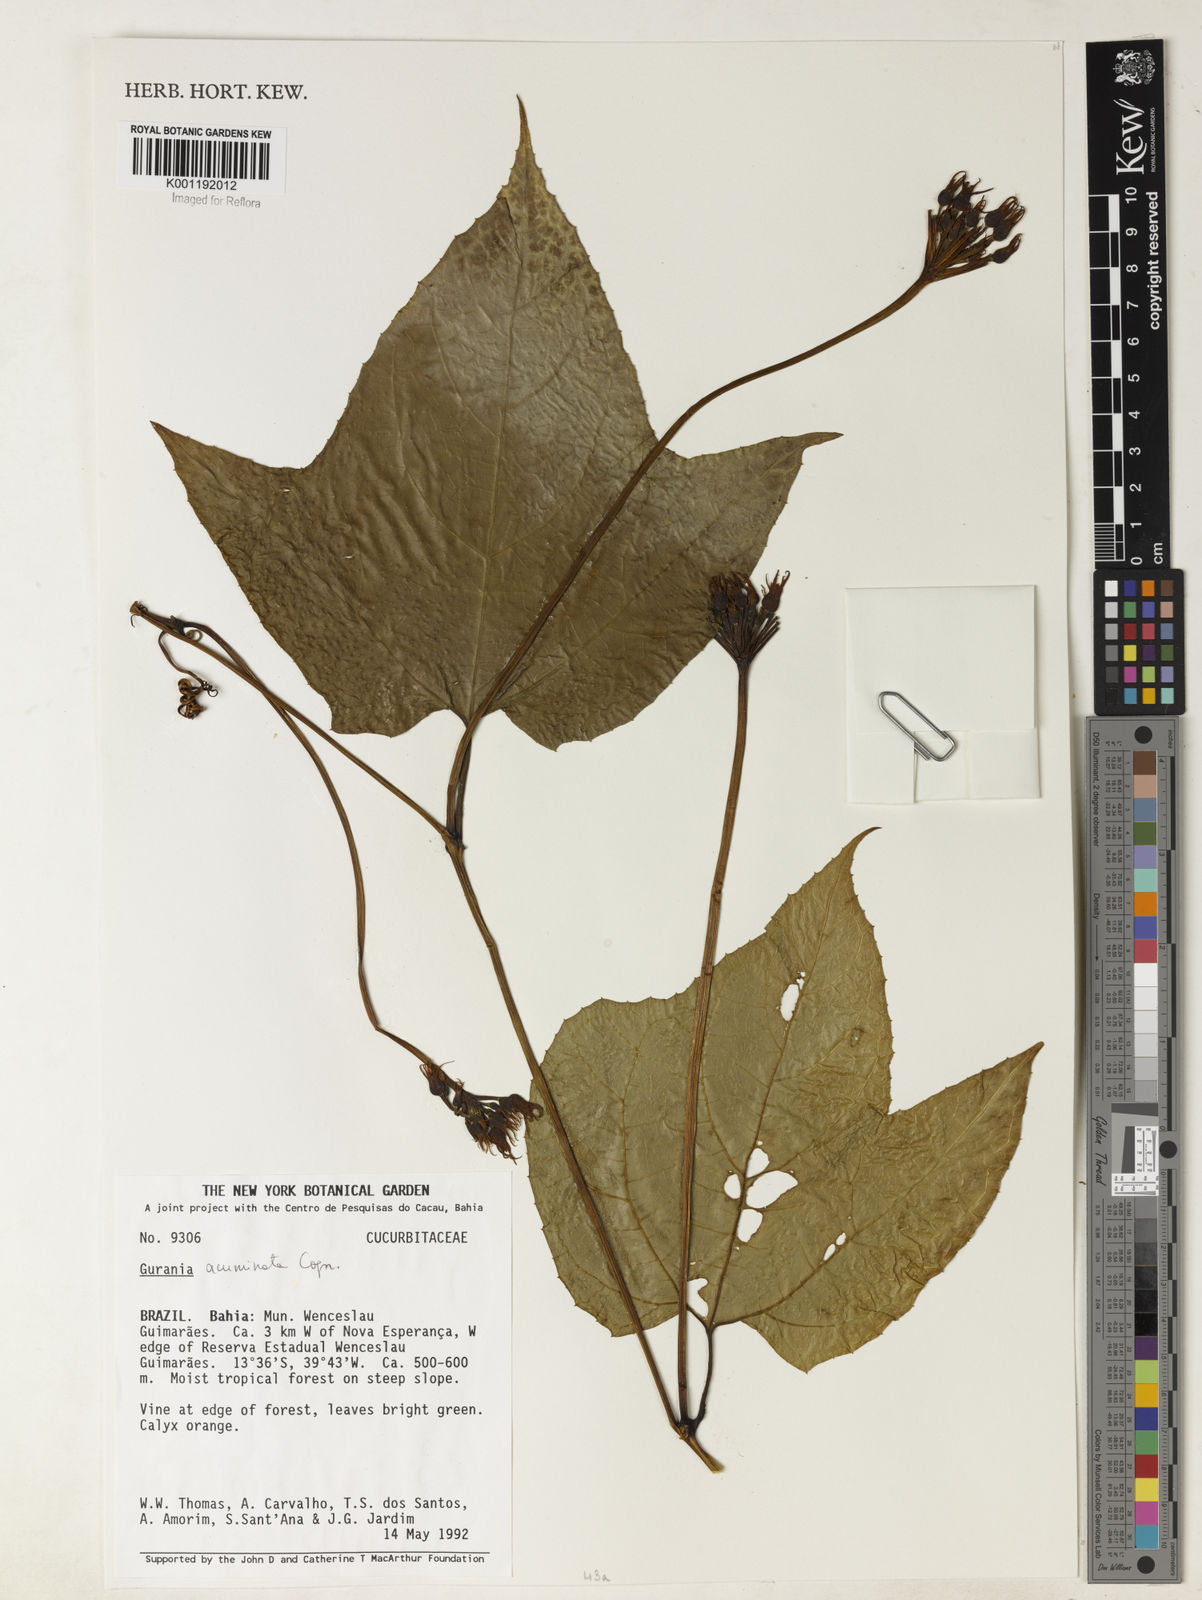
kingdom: Plantae
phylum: Tracheophyta
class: Magnoliopsida
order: Cucurbitales
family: Cucurbitaceae
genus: Gurania
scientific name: Gurania acuminata
